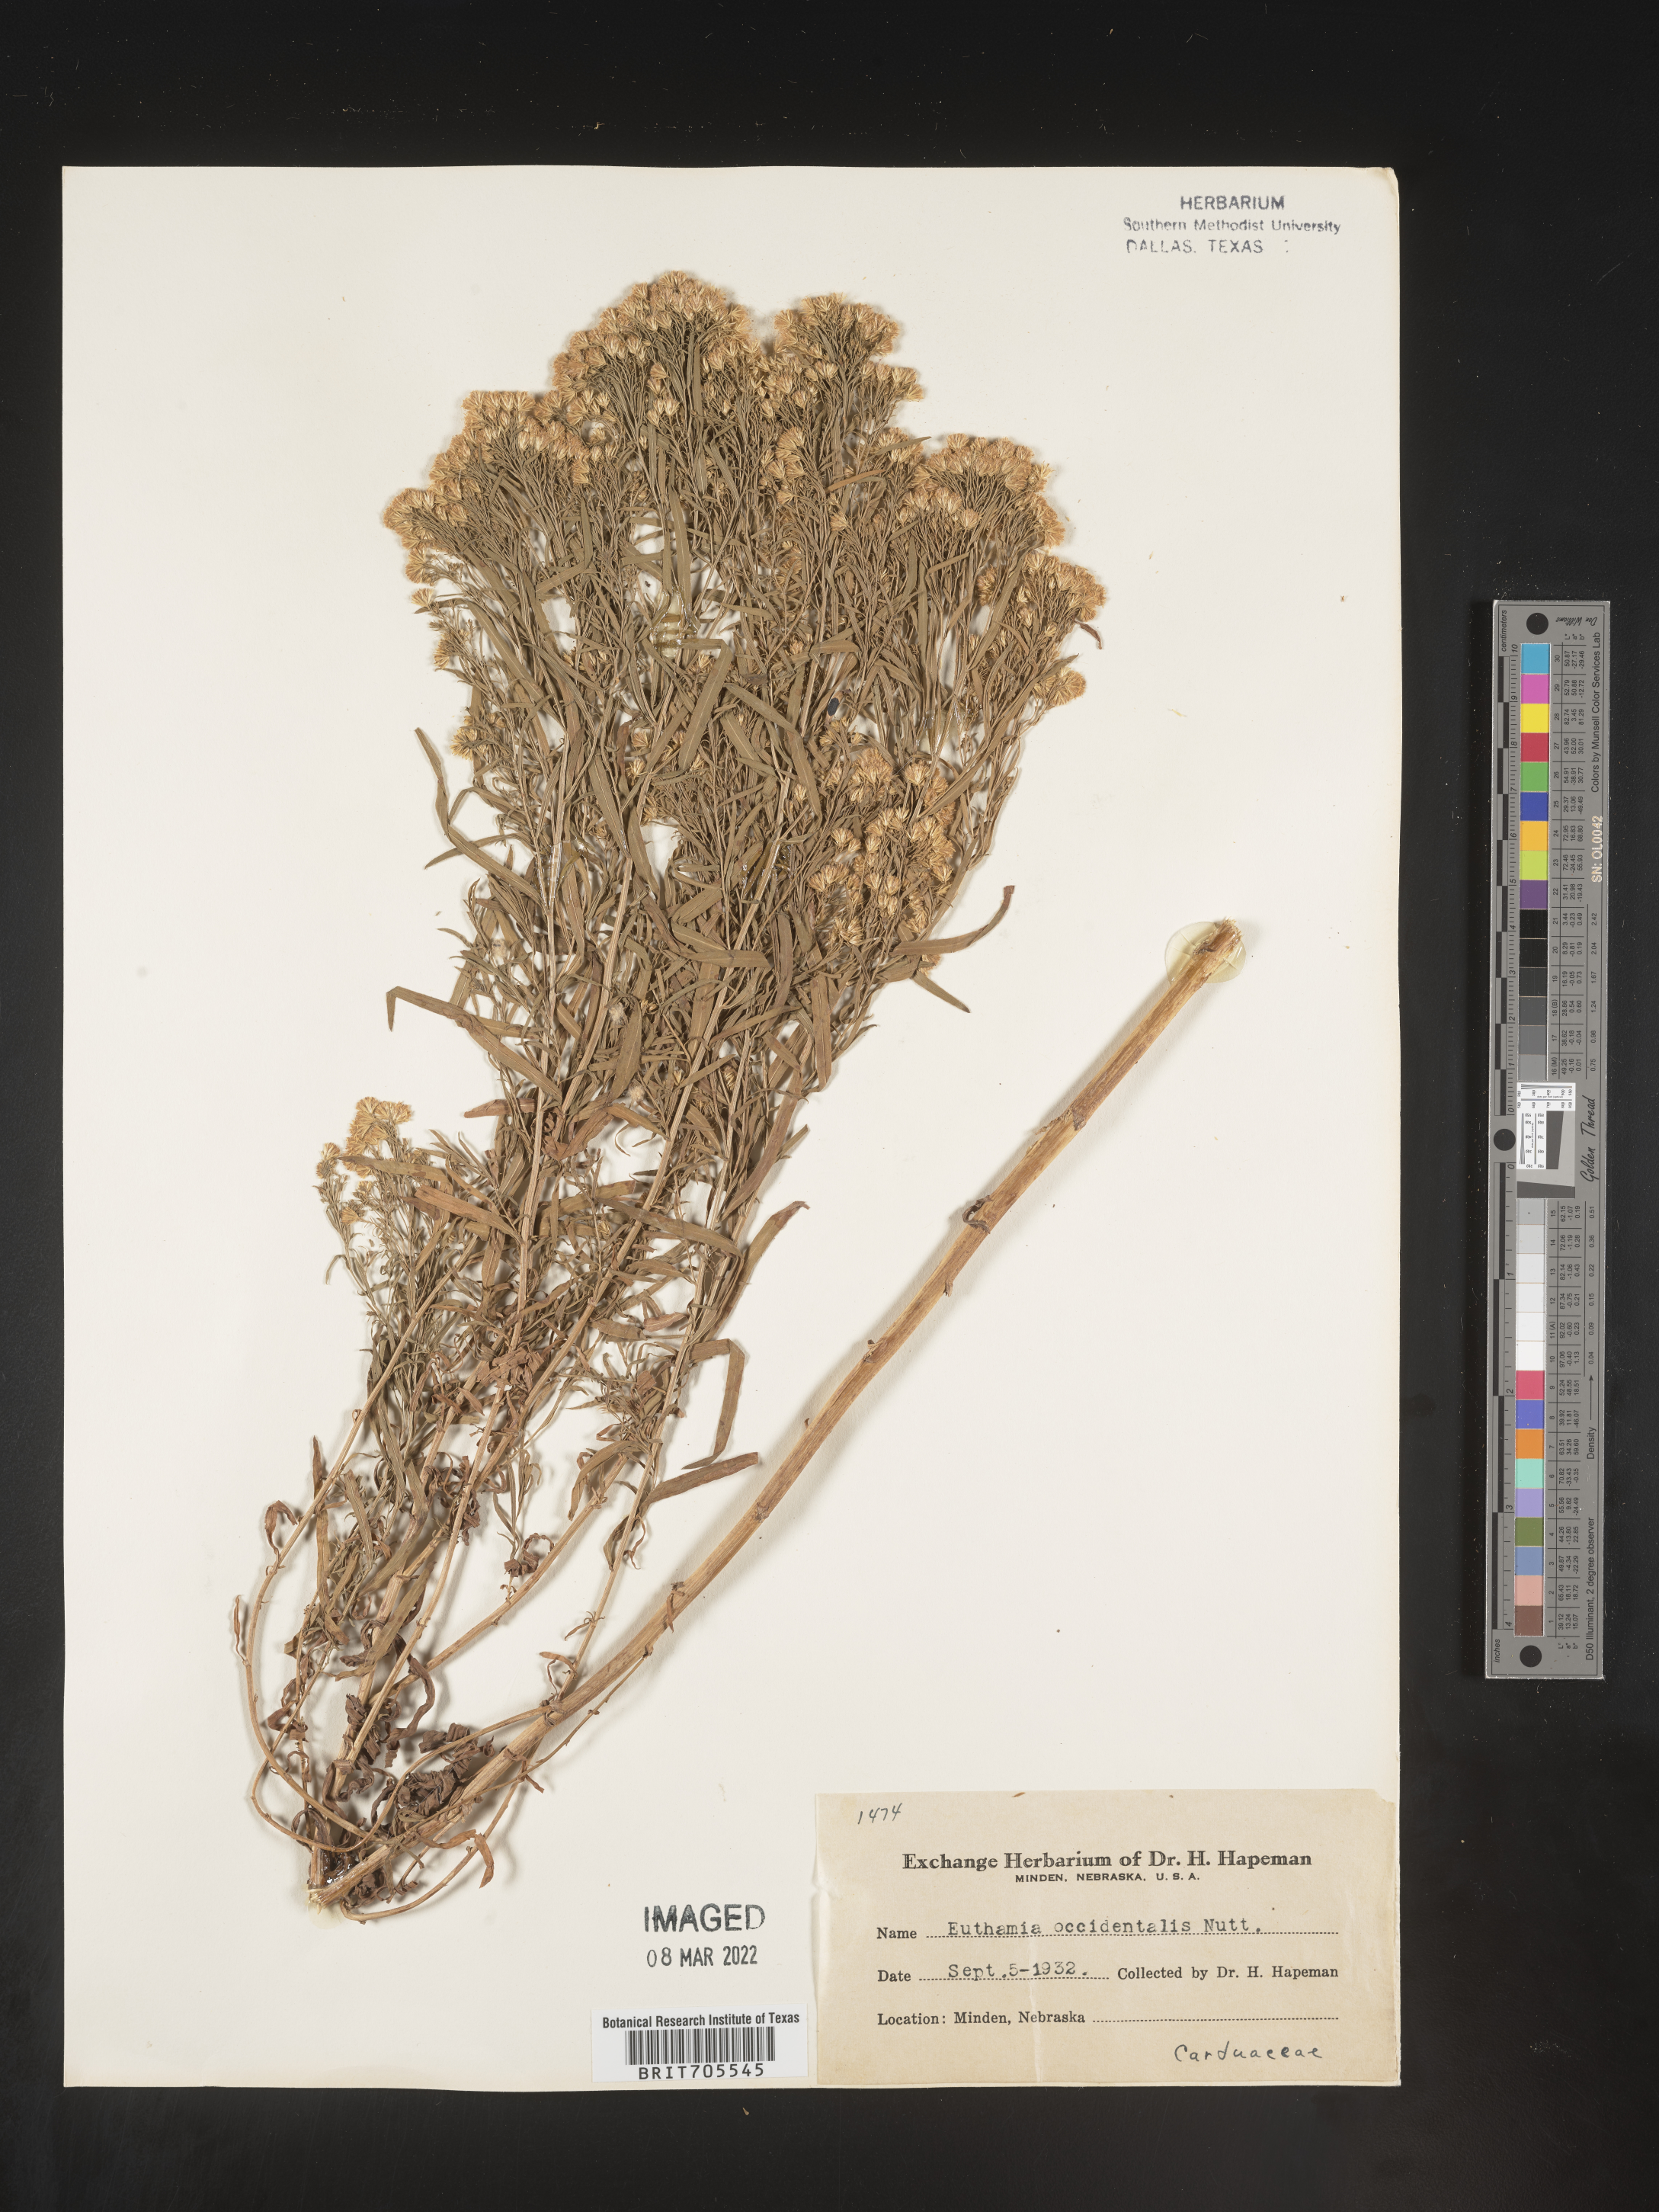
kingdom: Plantae
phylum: Tracheophyta
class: Magnoliopsida
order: Asterales
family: Asteraceae
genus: Euthamia
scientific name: Euthamia occidentalis
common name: Western goldentop
